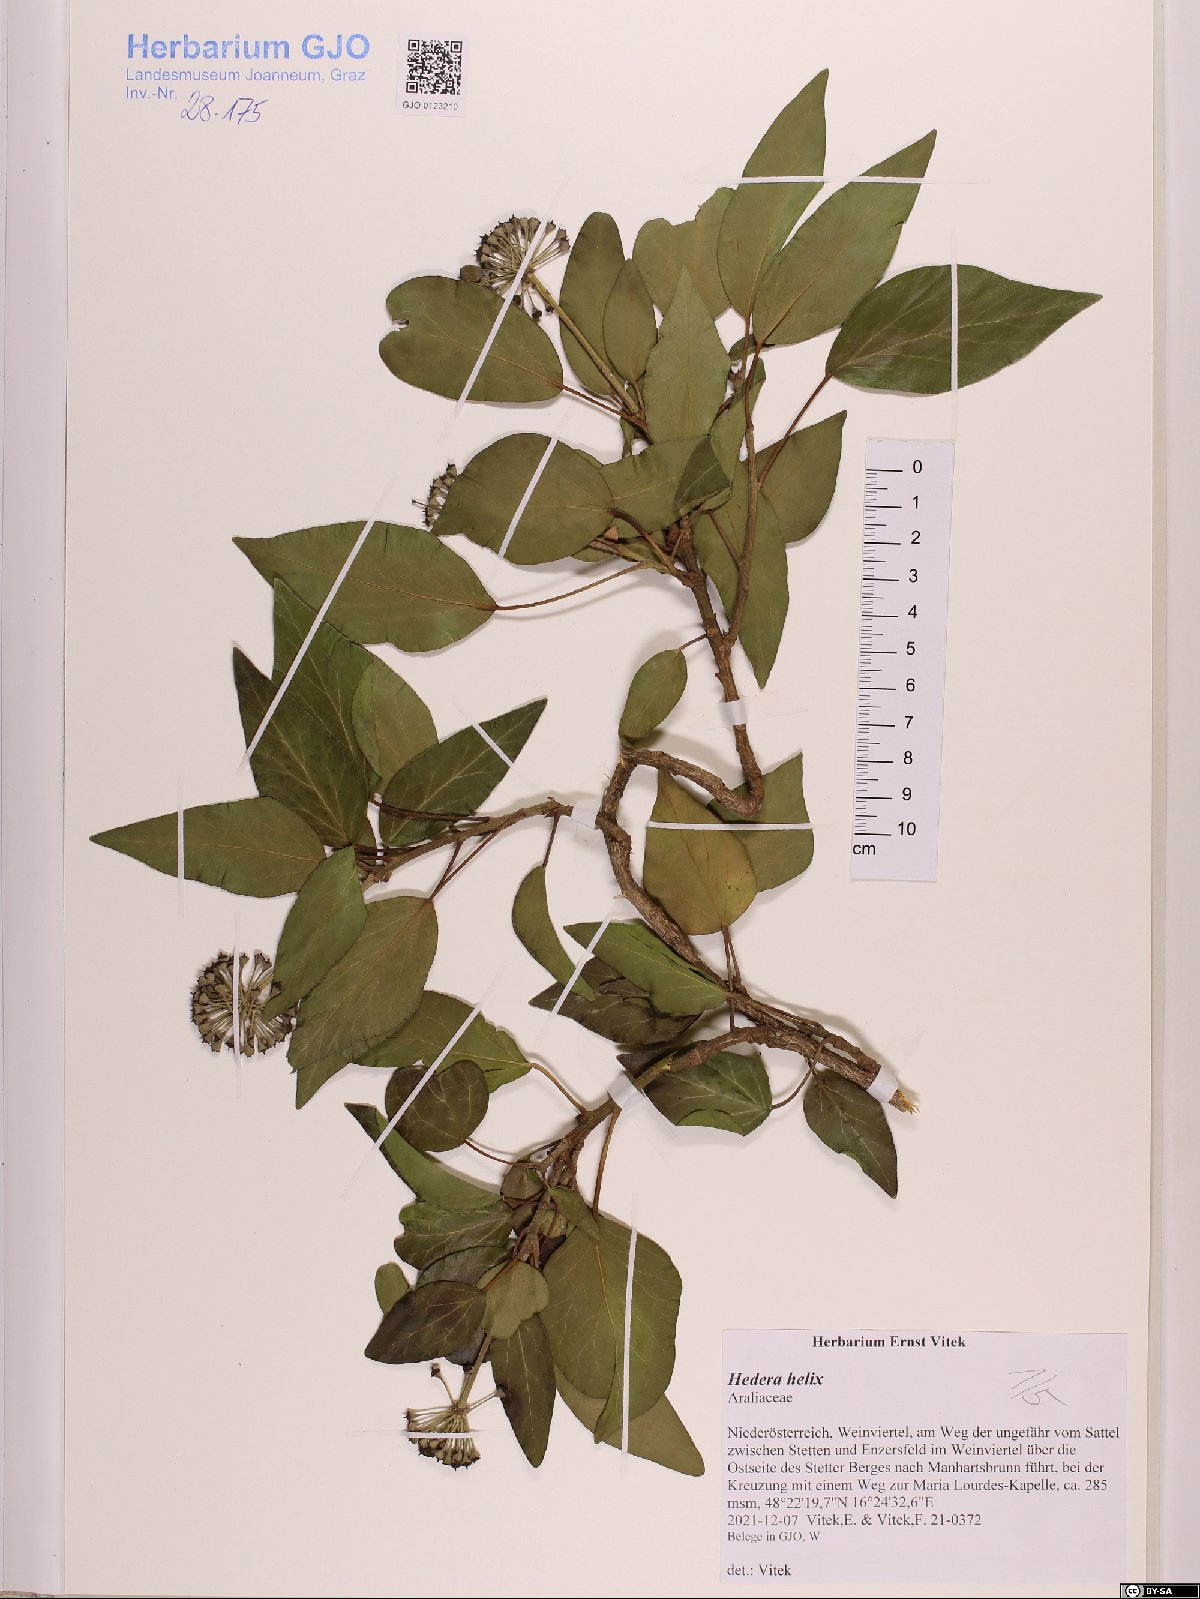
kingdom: Plantae
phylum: Tracheophyta
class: Magnoliopsida
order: Apiales
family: Araliaceae
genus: Hedera
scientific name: Hedera helix
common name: Ivy
